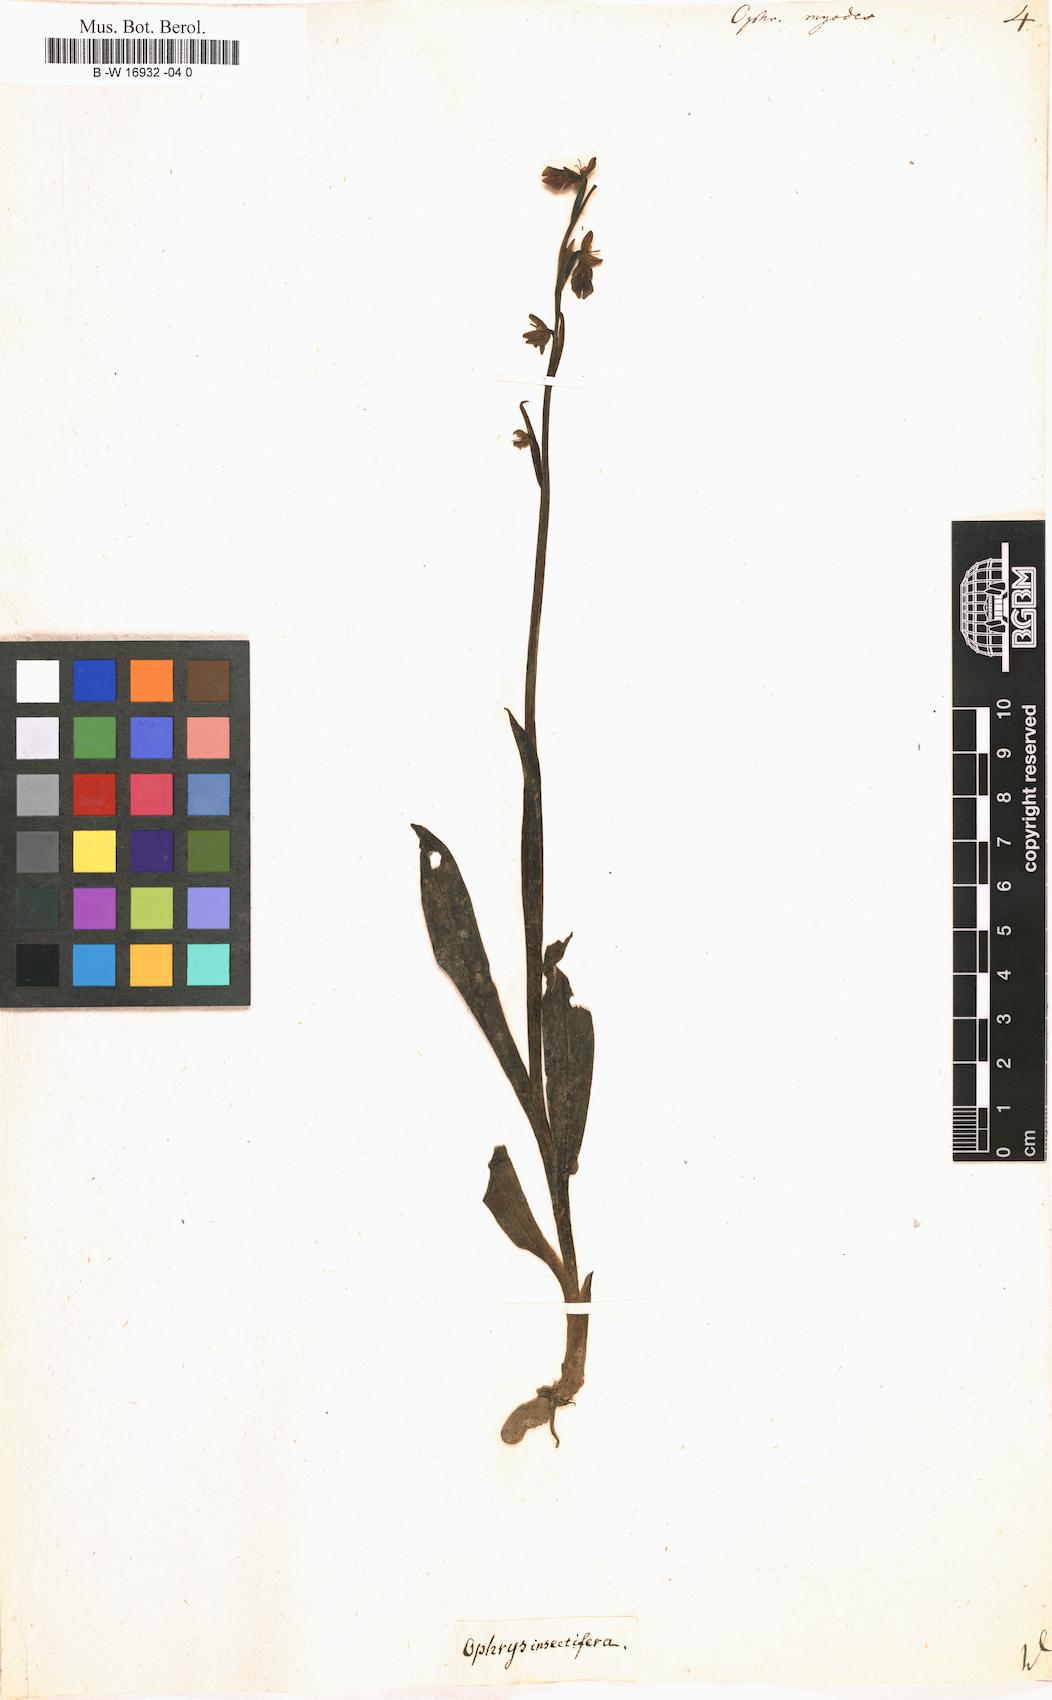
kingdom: Plantae
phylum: Tracheophyta
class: Liliopsida
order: Asparagales
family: Orchidaceae
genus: Ophrys
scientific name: Ophrys
